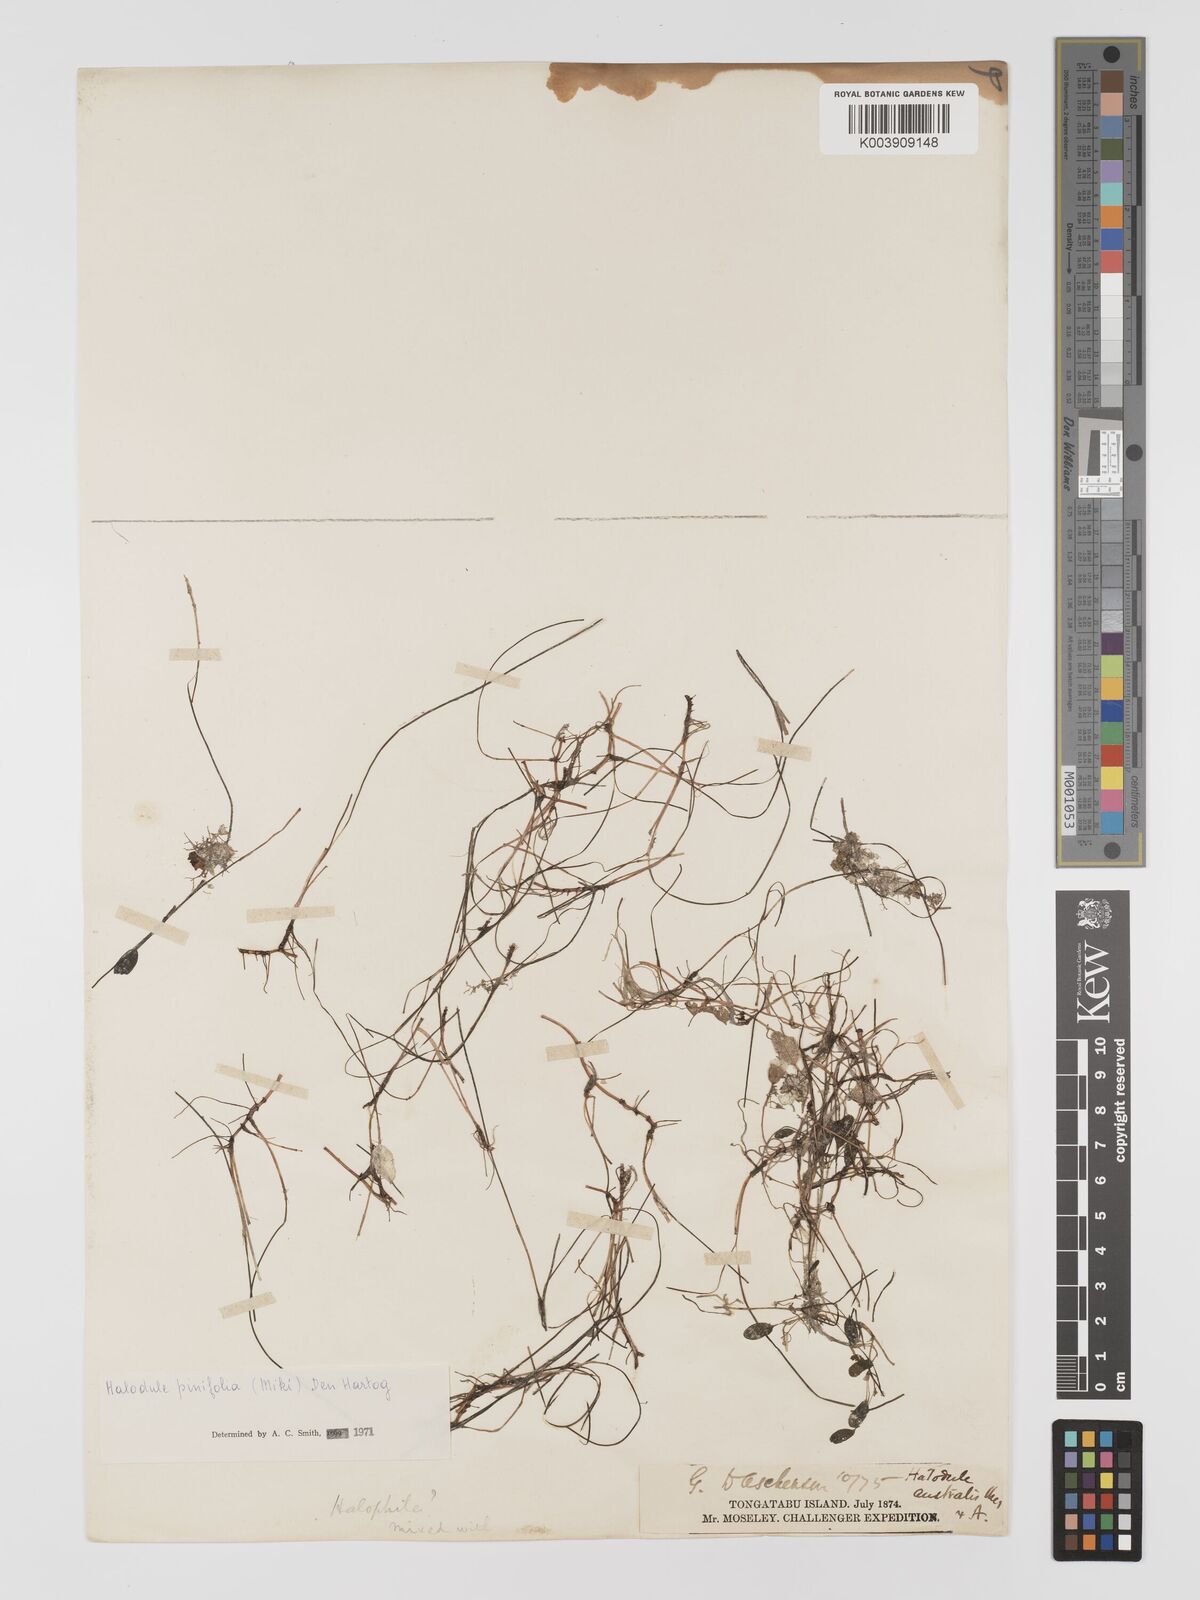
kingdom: Plantae
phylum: Tracheophyta
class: Liliopsida
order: Alismatales
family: Cymodoceaceae
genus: Halodule
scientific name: Halodule pinifolia
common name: Species code: hp
